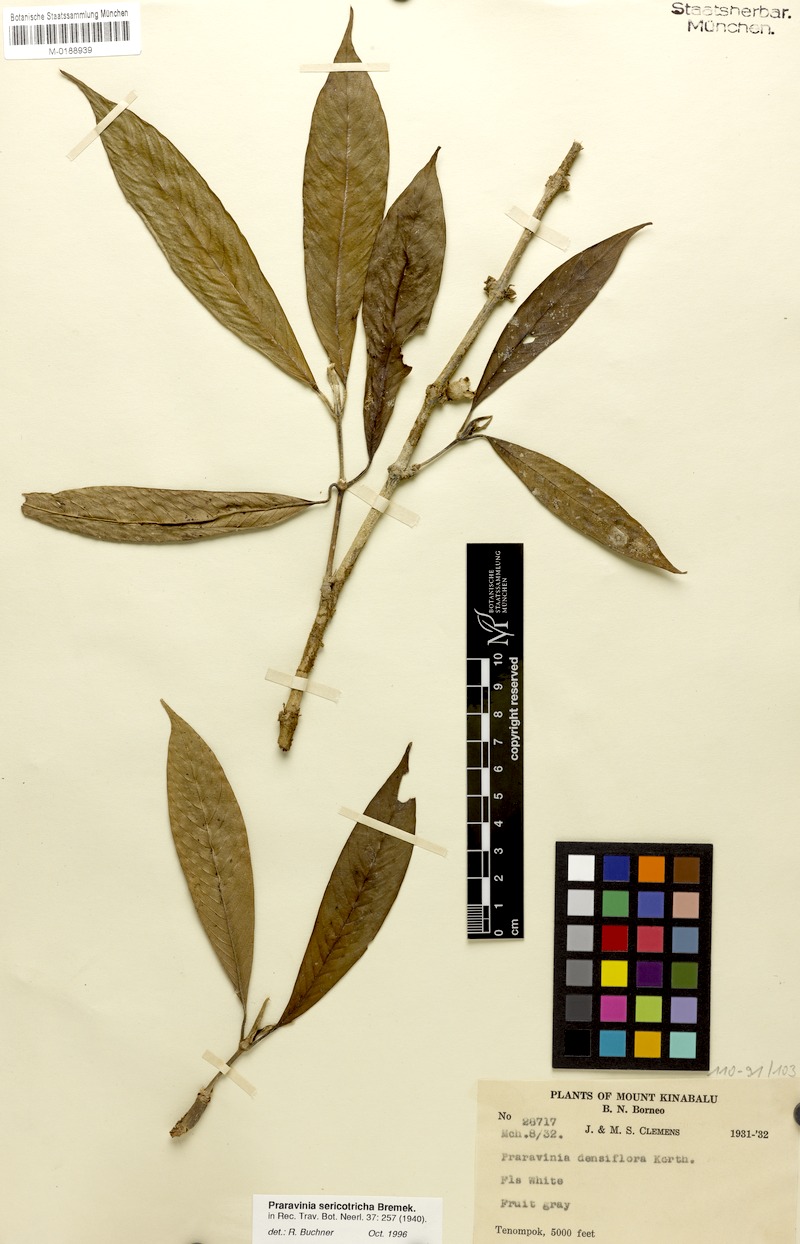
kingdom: Plantae
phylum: Tracheophyta
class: Magnoliopsida
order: Gentianales
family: Rubiaceae
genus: Praravinia
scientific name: Praravinia sericotricha
